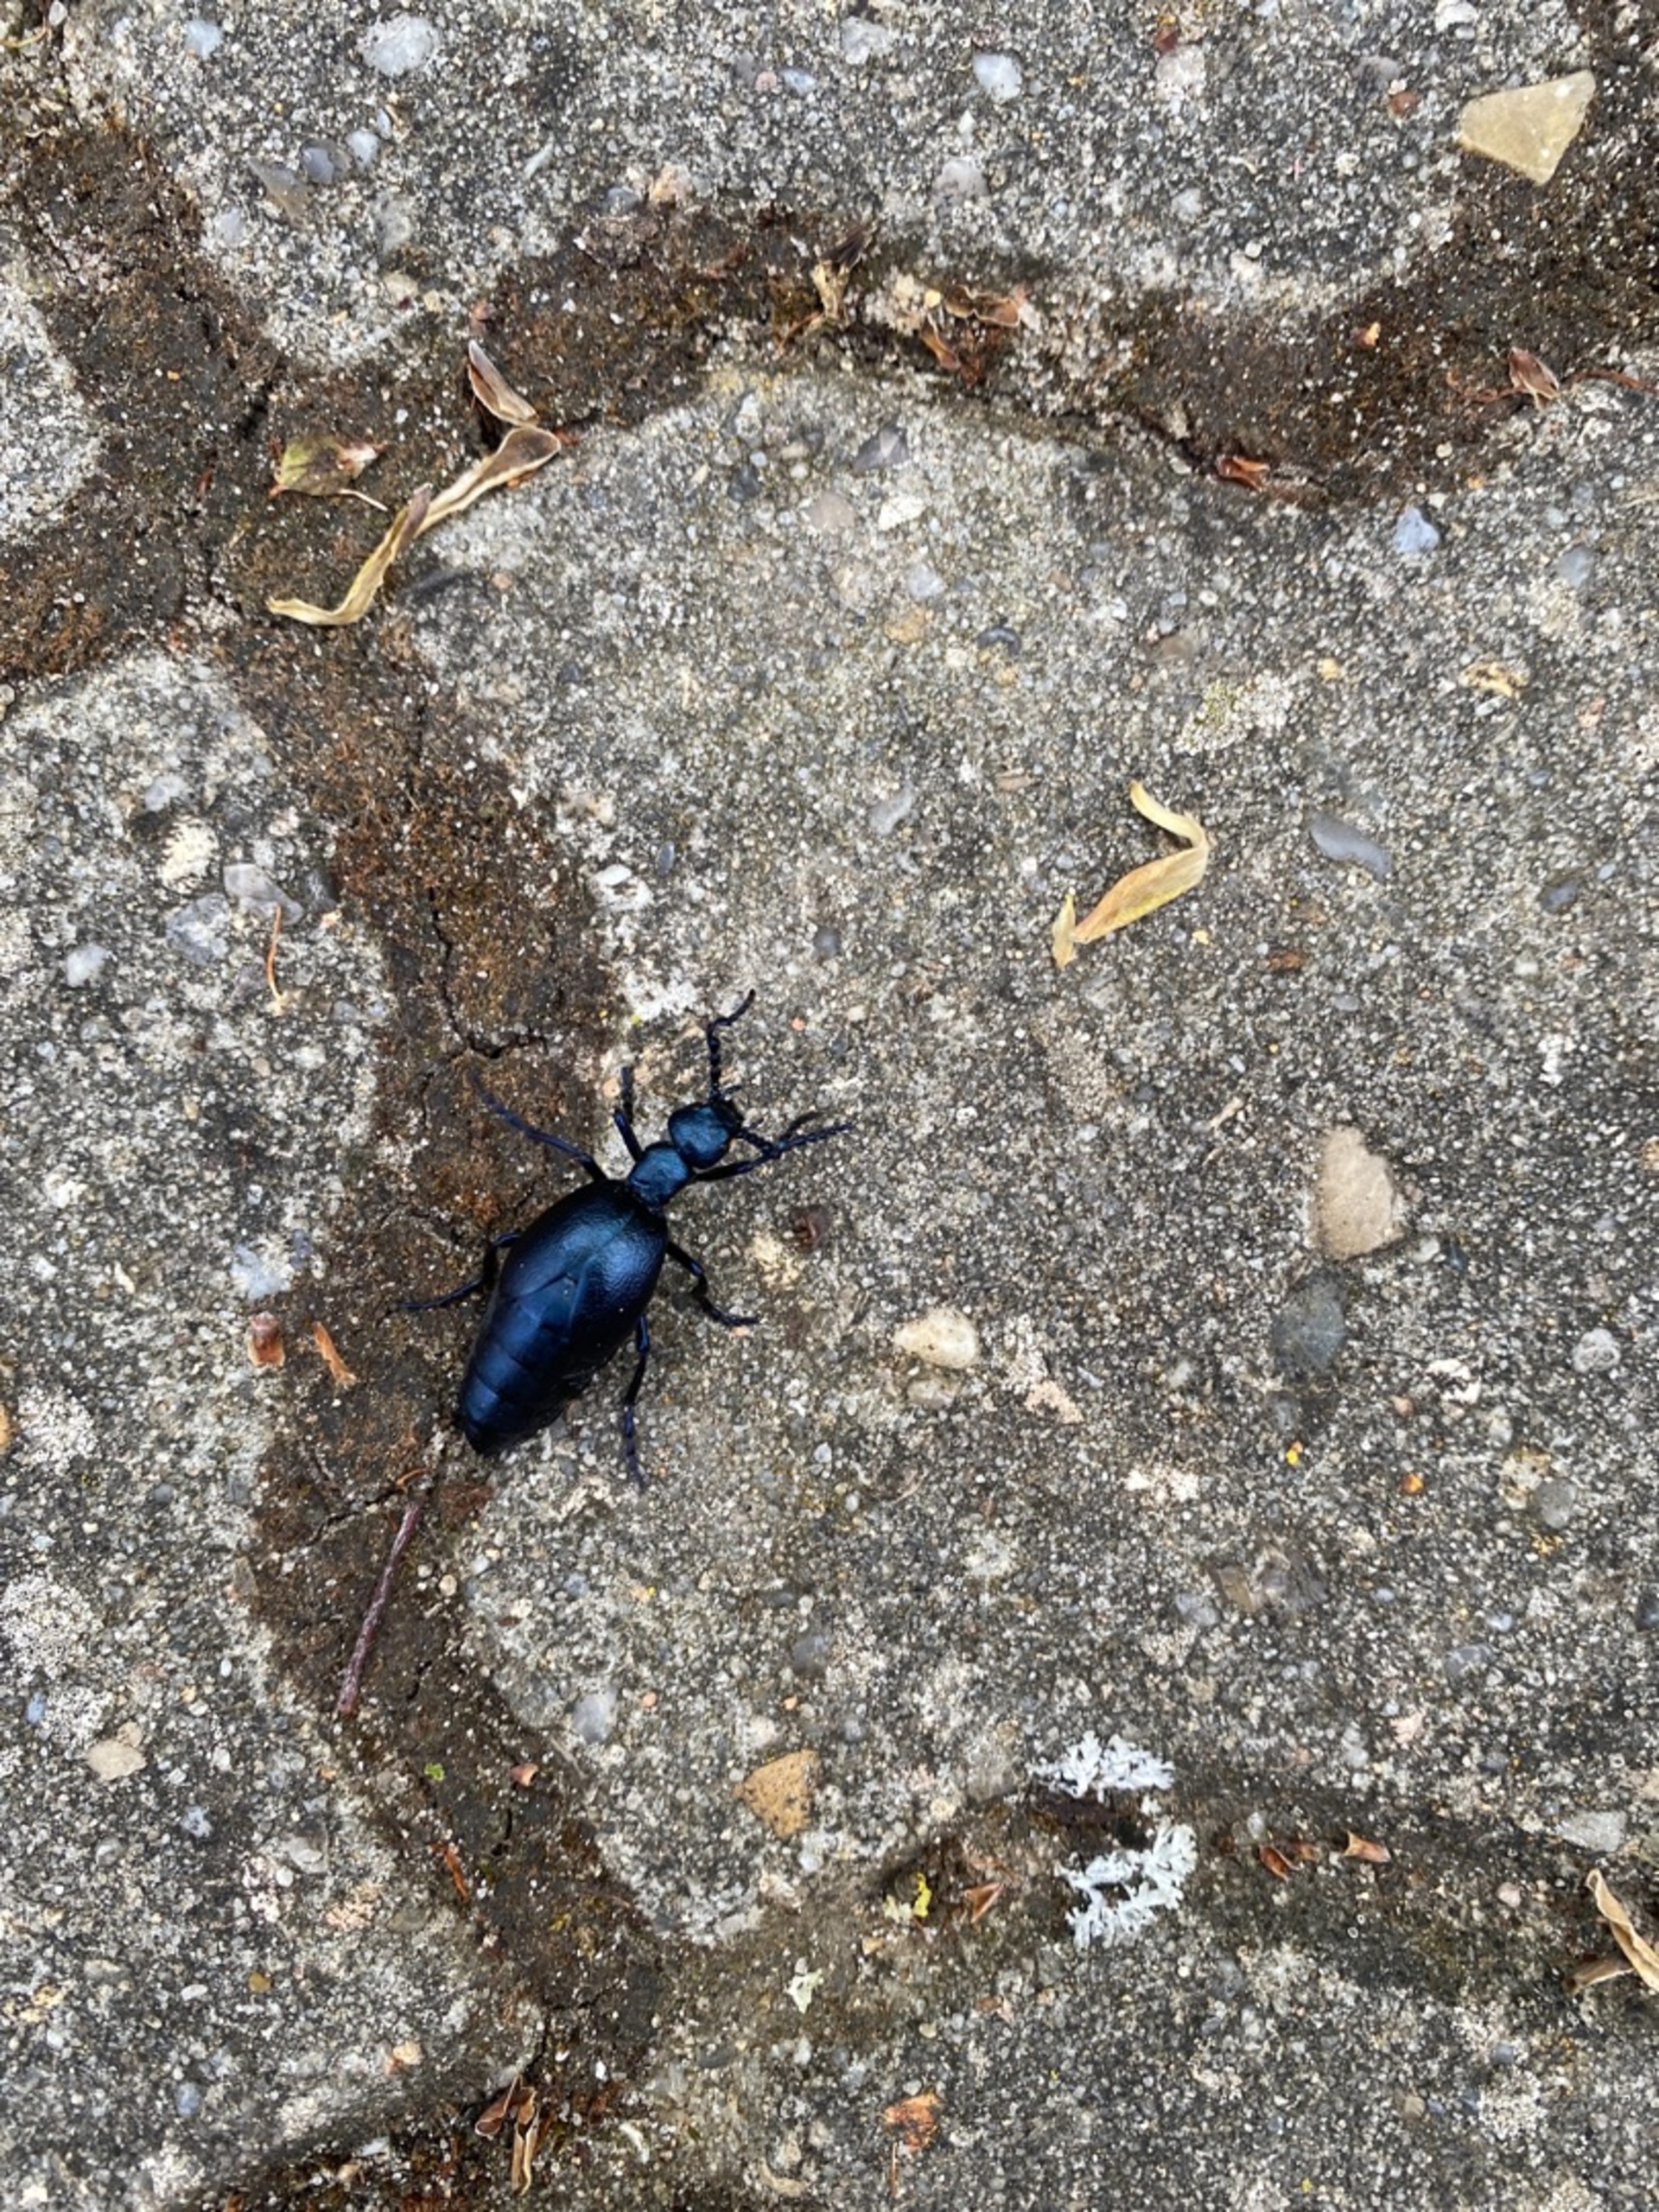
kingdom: Animalia
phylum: Arthropoda
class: Insecta
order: Coleoptera
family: Meloidae
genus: Meloe
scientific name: Meloe violaceus
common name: Blå oliebille
